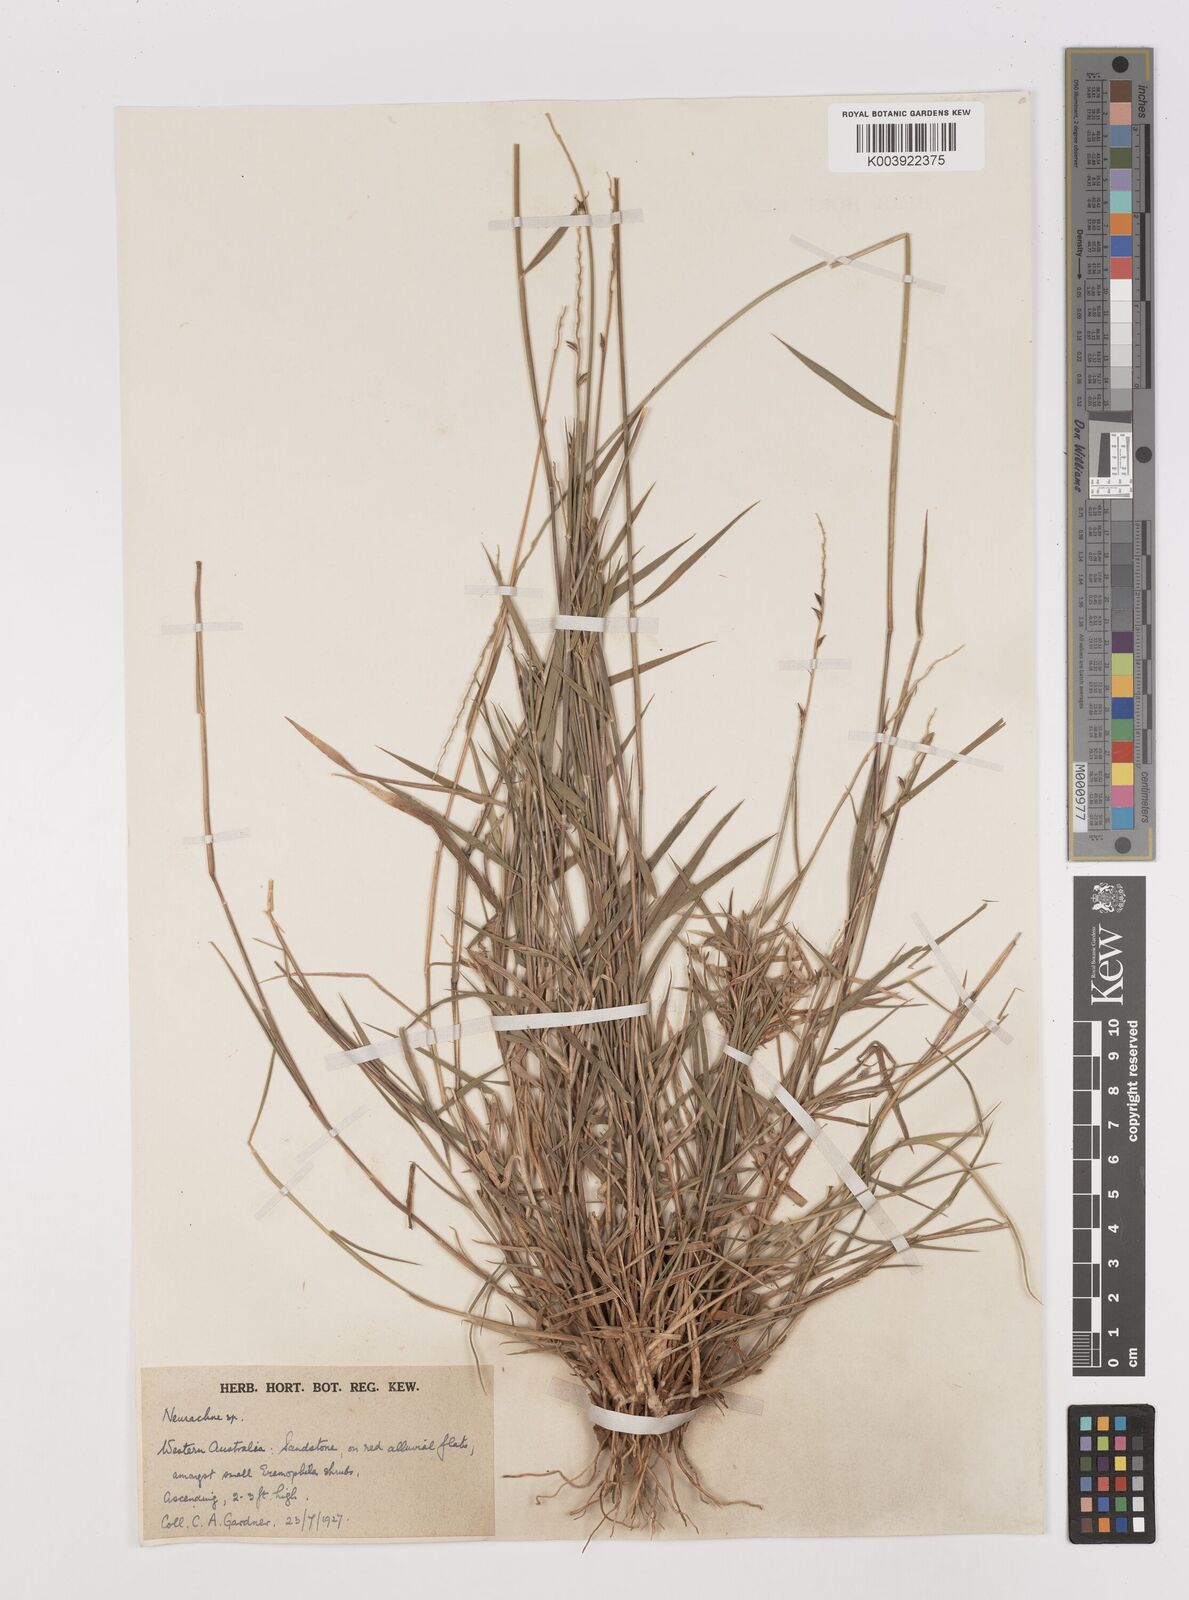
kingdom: Plantae
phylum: Tracheophyta
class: Liliopsida
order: Poales
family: Poaceae
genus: Thyridolepis
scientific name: Thyridolepis mitchelliana
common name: Rock tassel grass
